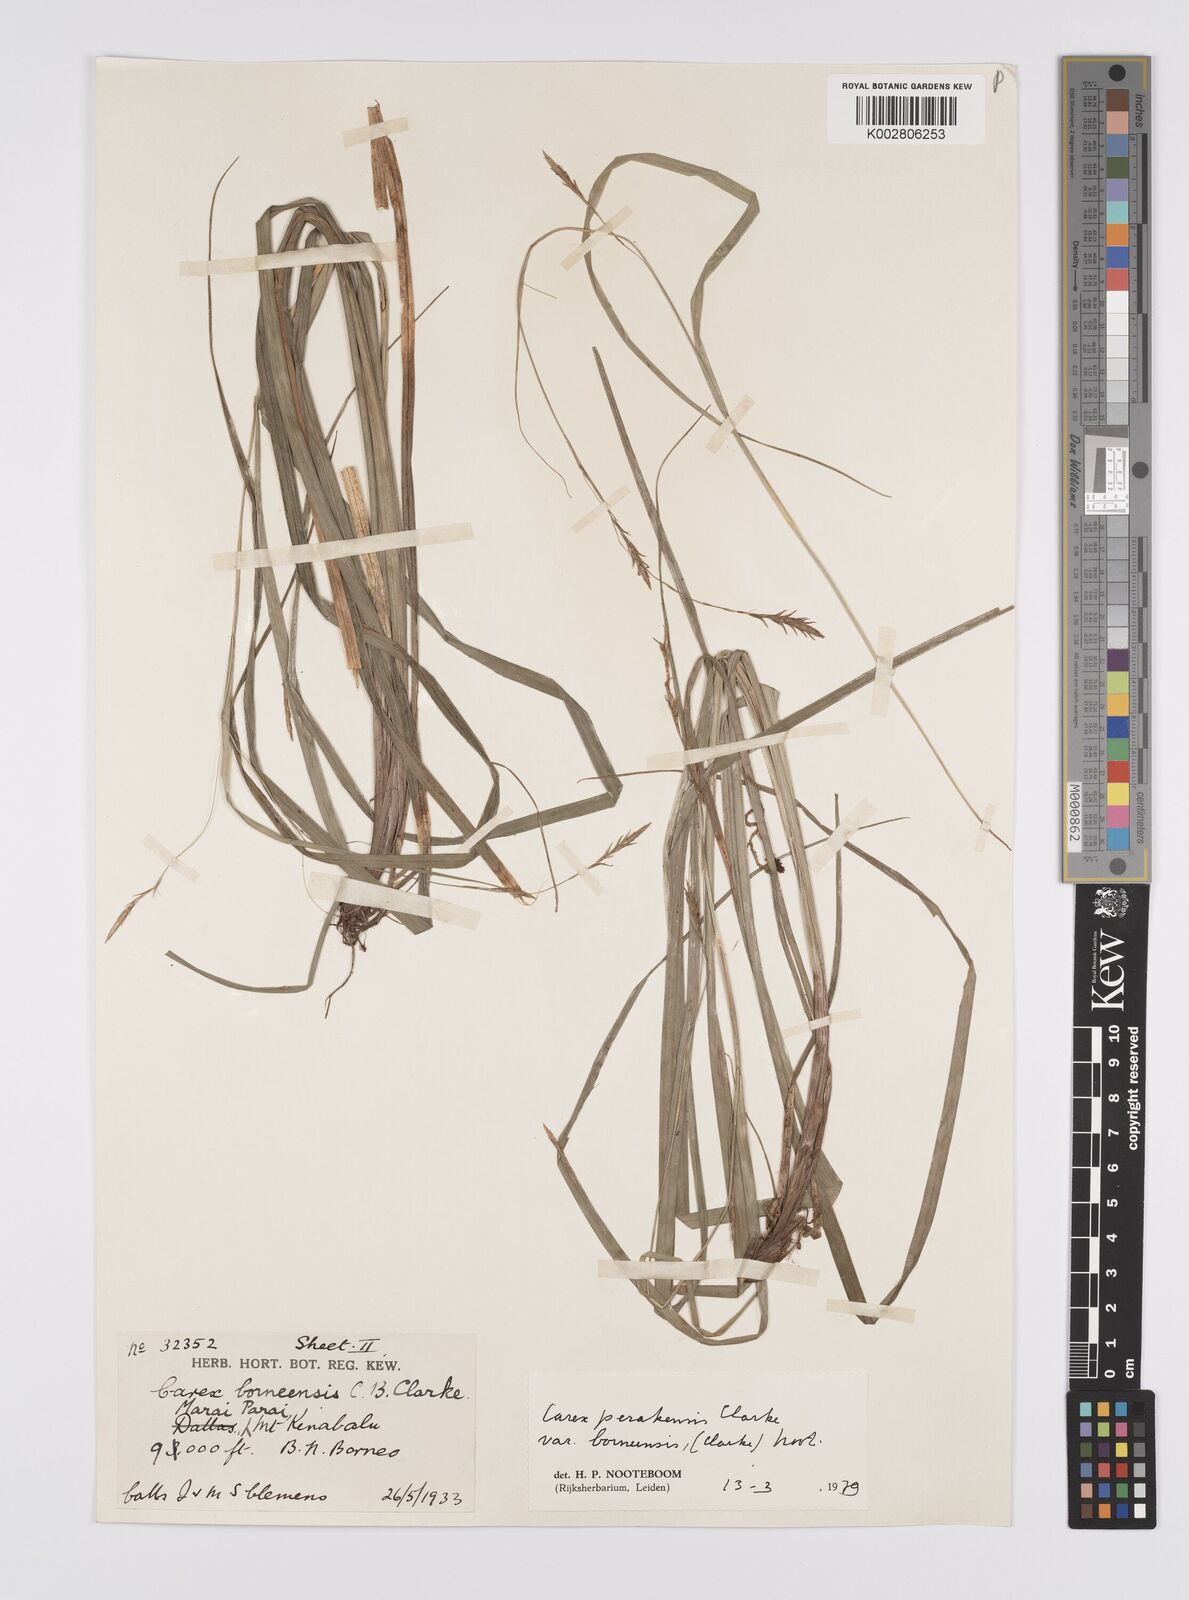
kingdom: Plantae
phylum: Tracheophyta
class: Liliopsida
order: Poales
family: Cyperaceae
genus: Carex
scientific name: Carex perakensis
